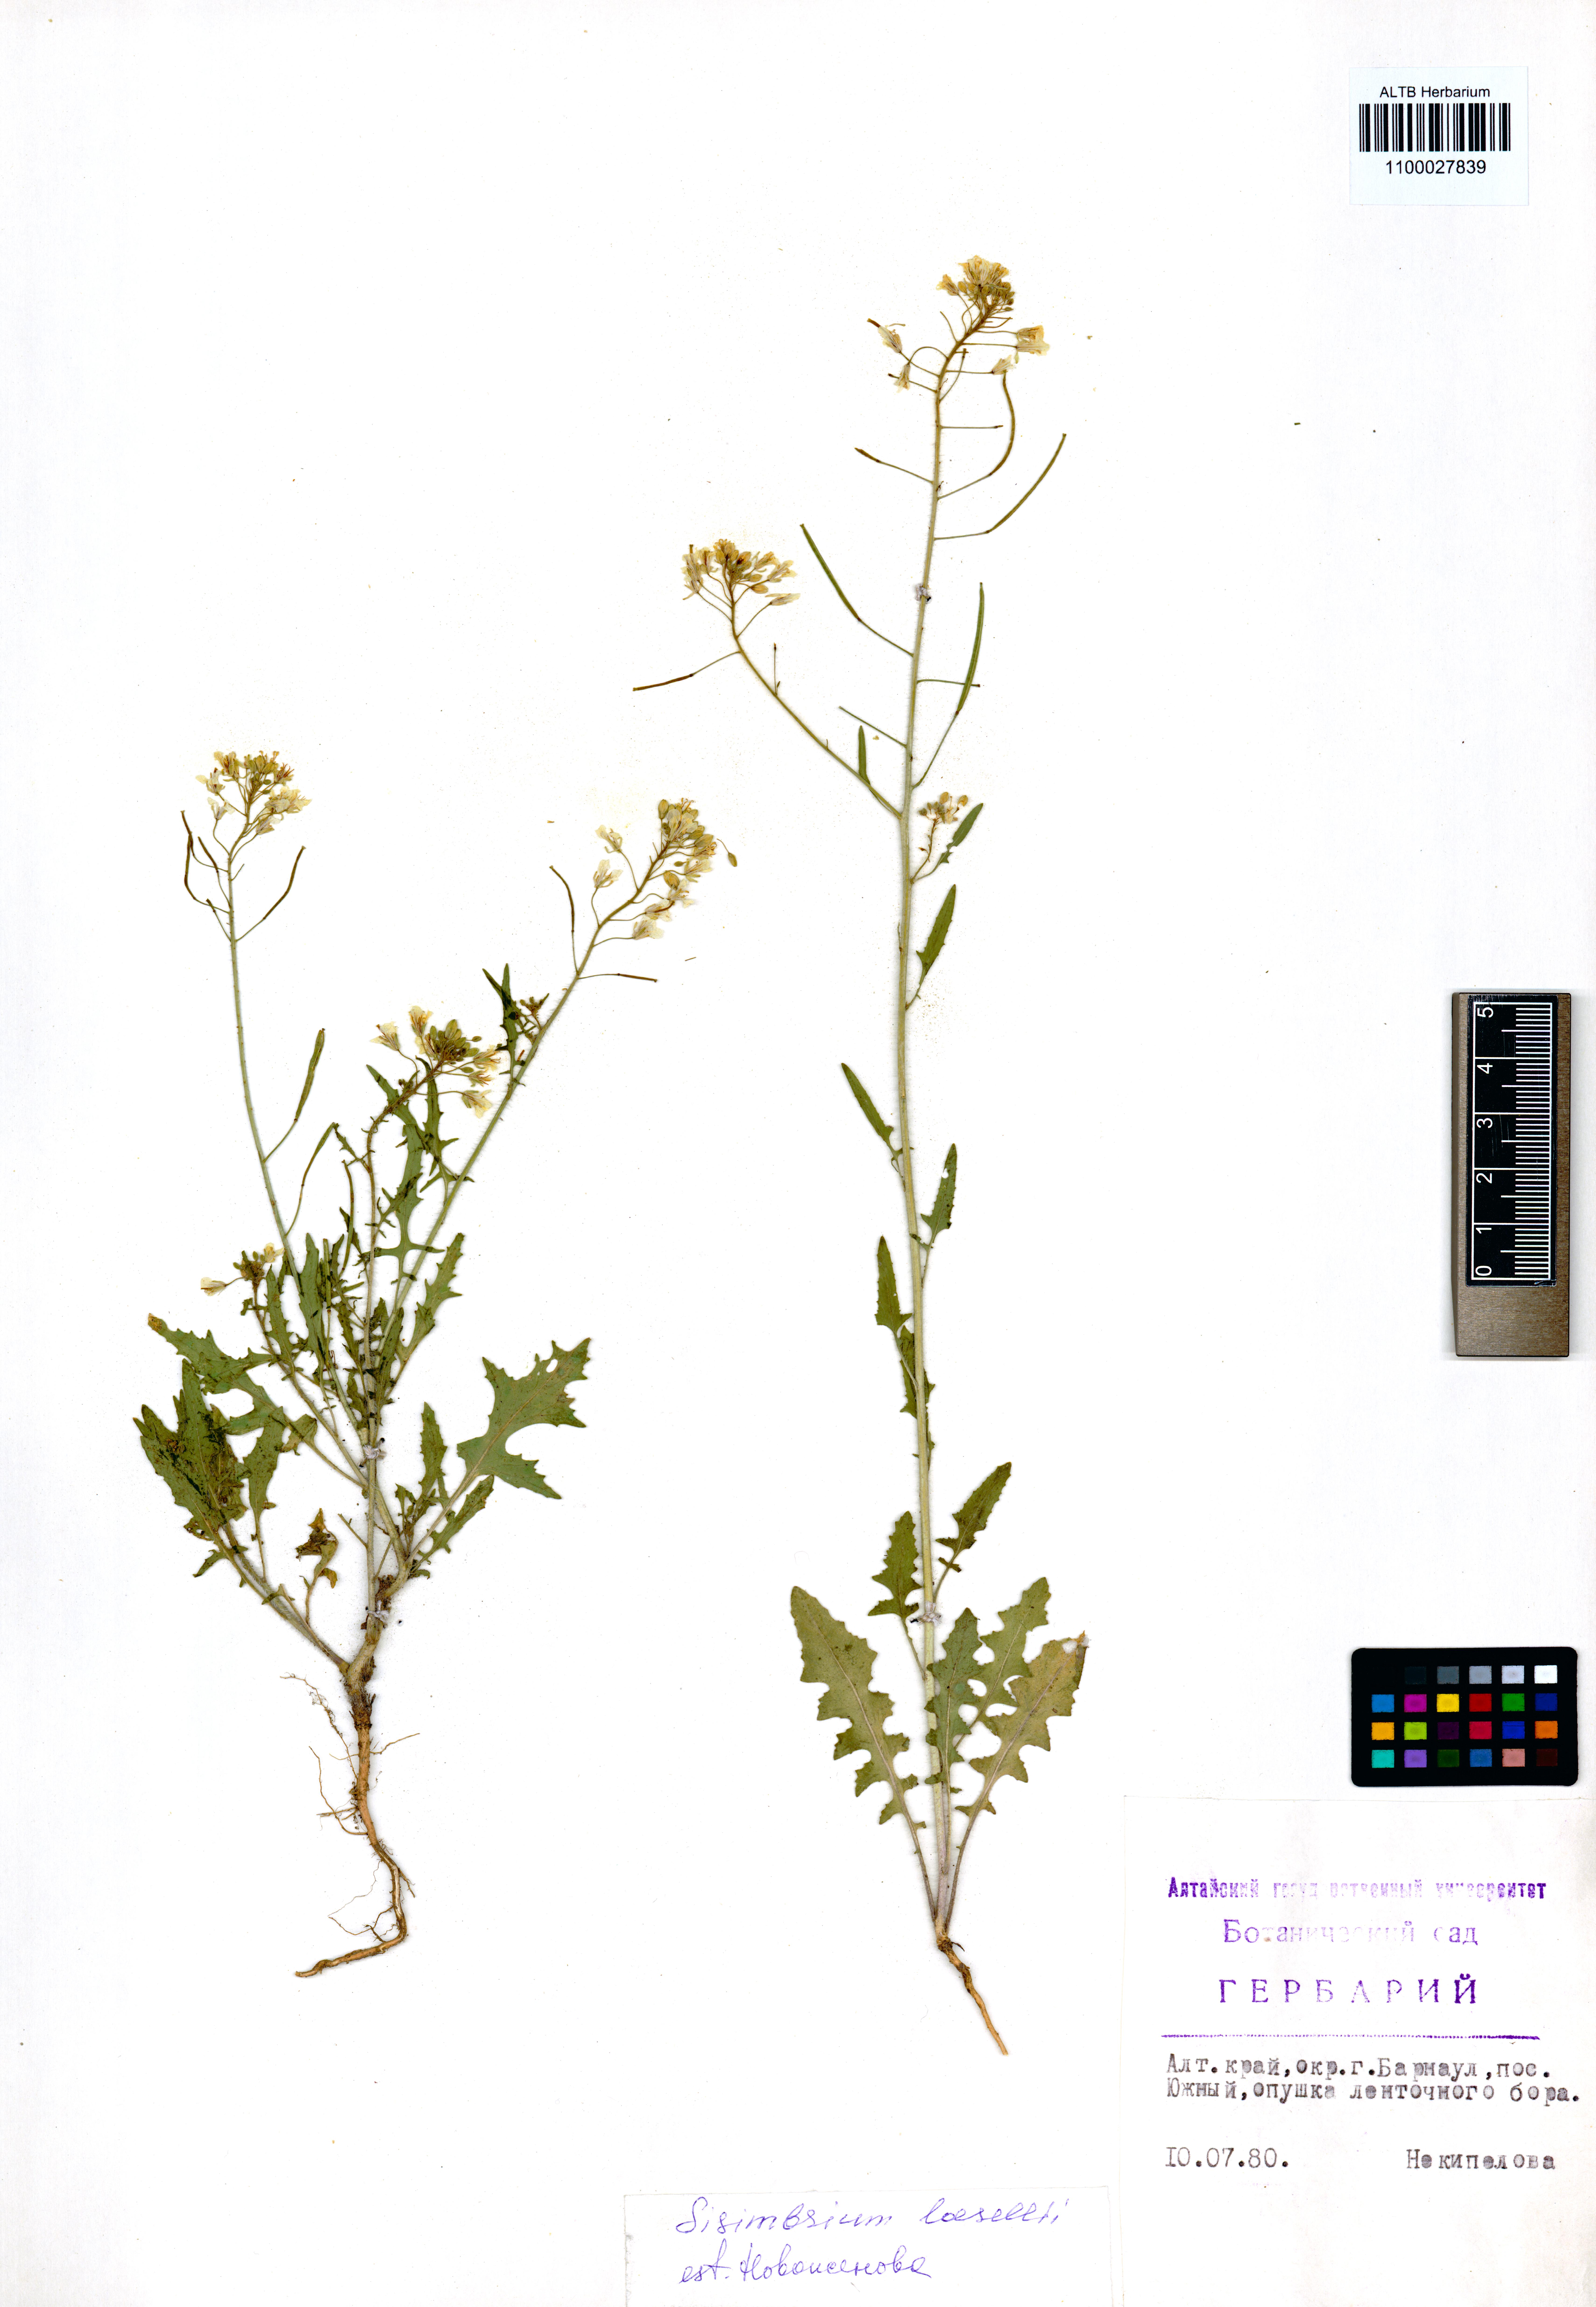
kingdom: Plantae
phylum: Tracheophyta
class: Magnoliopsida
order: Brassicales
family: Brassicaceae
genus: Sisymbrium
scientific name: Sisymbrium loeselii
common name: False london-rocket
